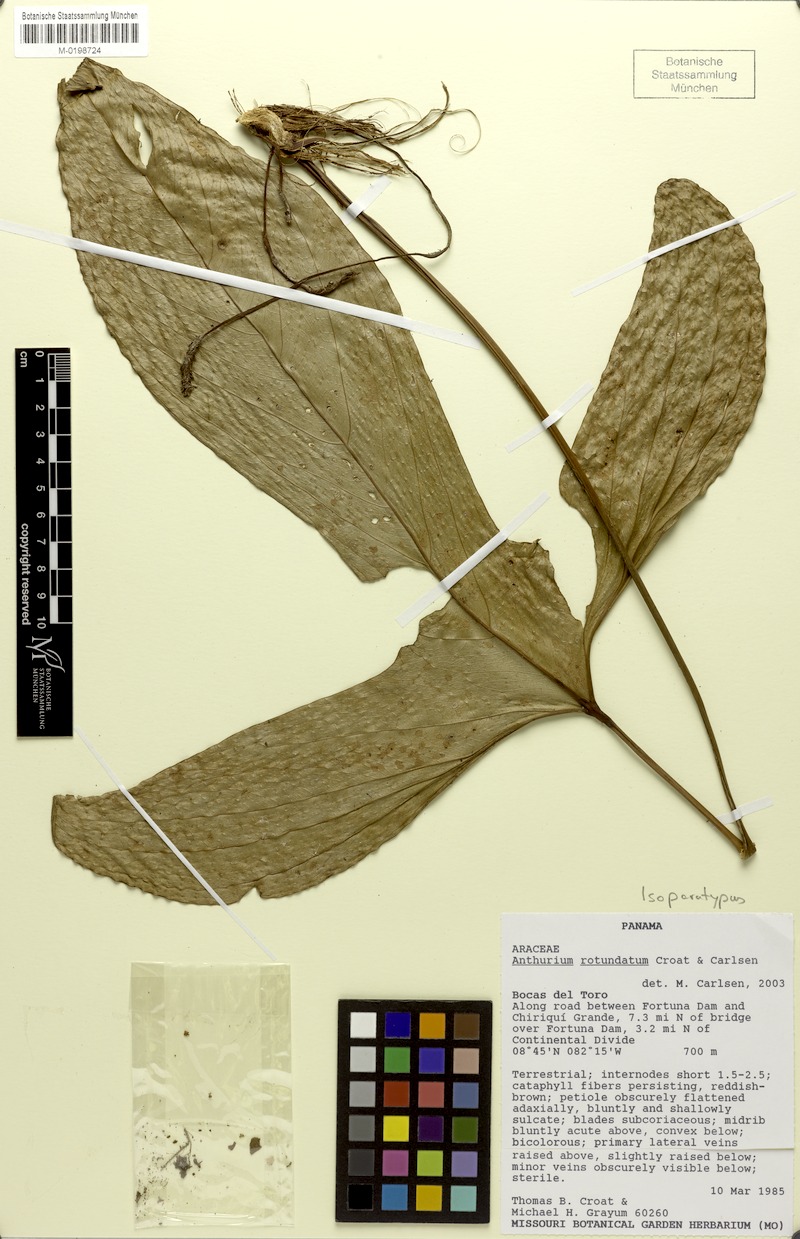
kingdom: Plantae
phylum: Tracheophyta
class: Liliopsida
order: Alismatales
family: Araceae
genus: Anthurium
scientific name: Anthurium rotundatum
